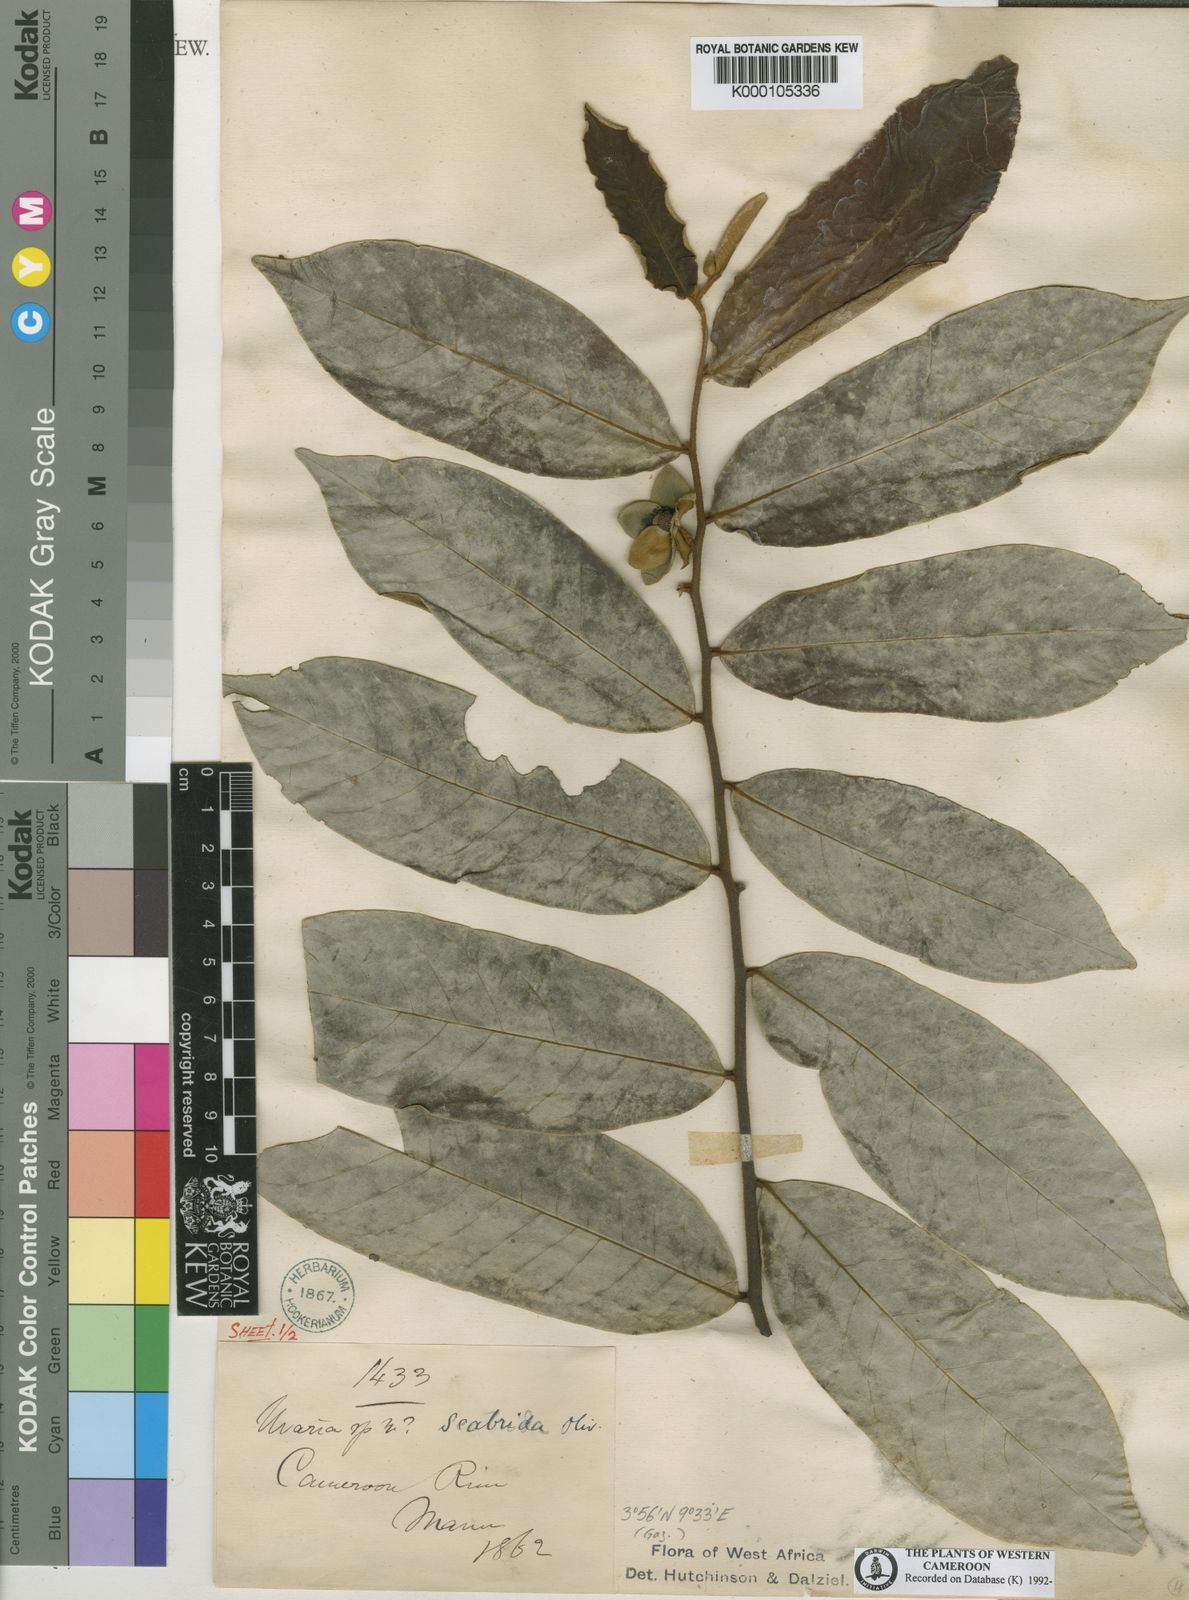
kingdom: Plantae
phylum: Tracheophyta
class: Magnoliopsida
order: Magnoliales
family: Annonaceae
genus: Uvaria
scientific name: Uvaria scabrida
